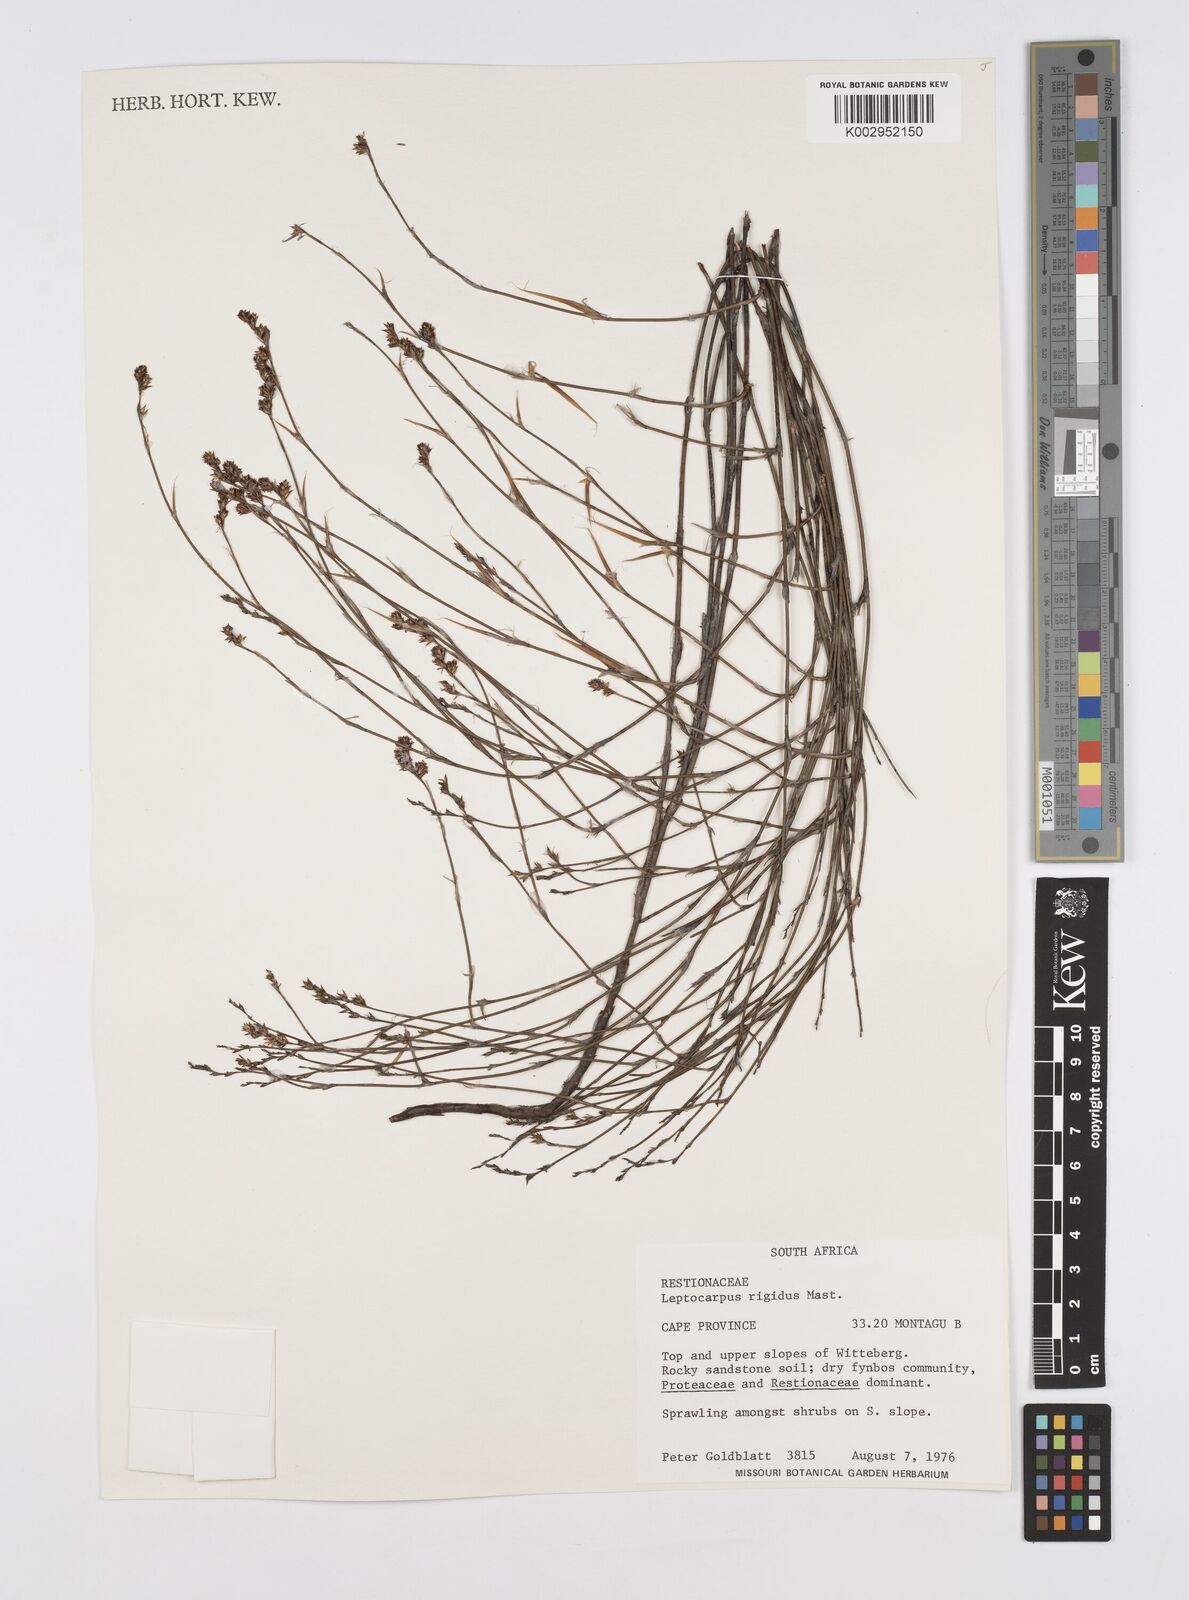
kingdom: Plantae
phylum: Tracheophyta
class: Liliopsida
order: Poales
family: Restionaceae
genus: Restio
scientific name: Restio rigidus
